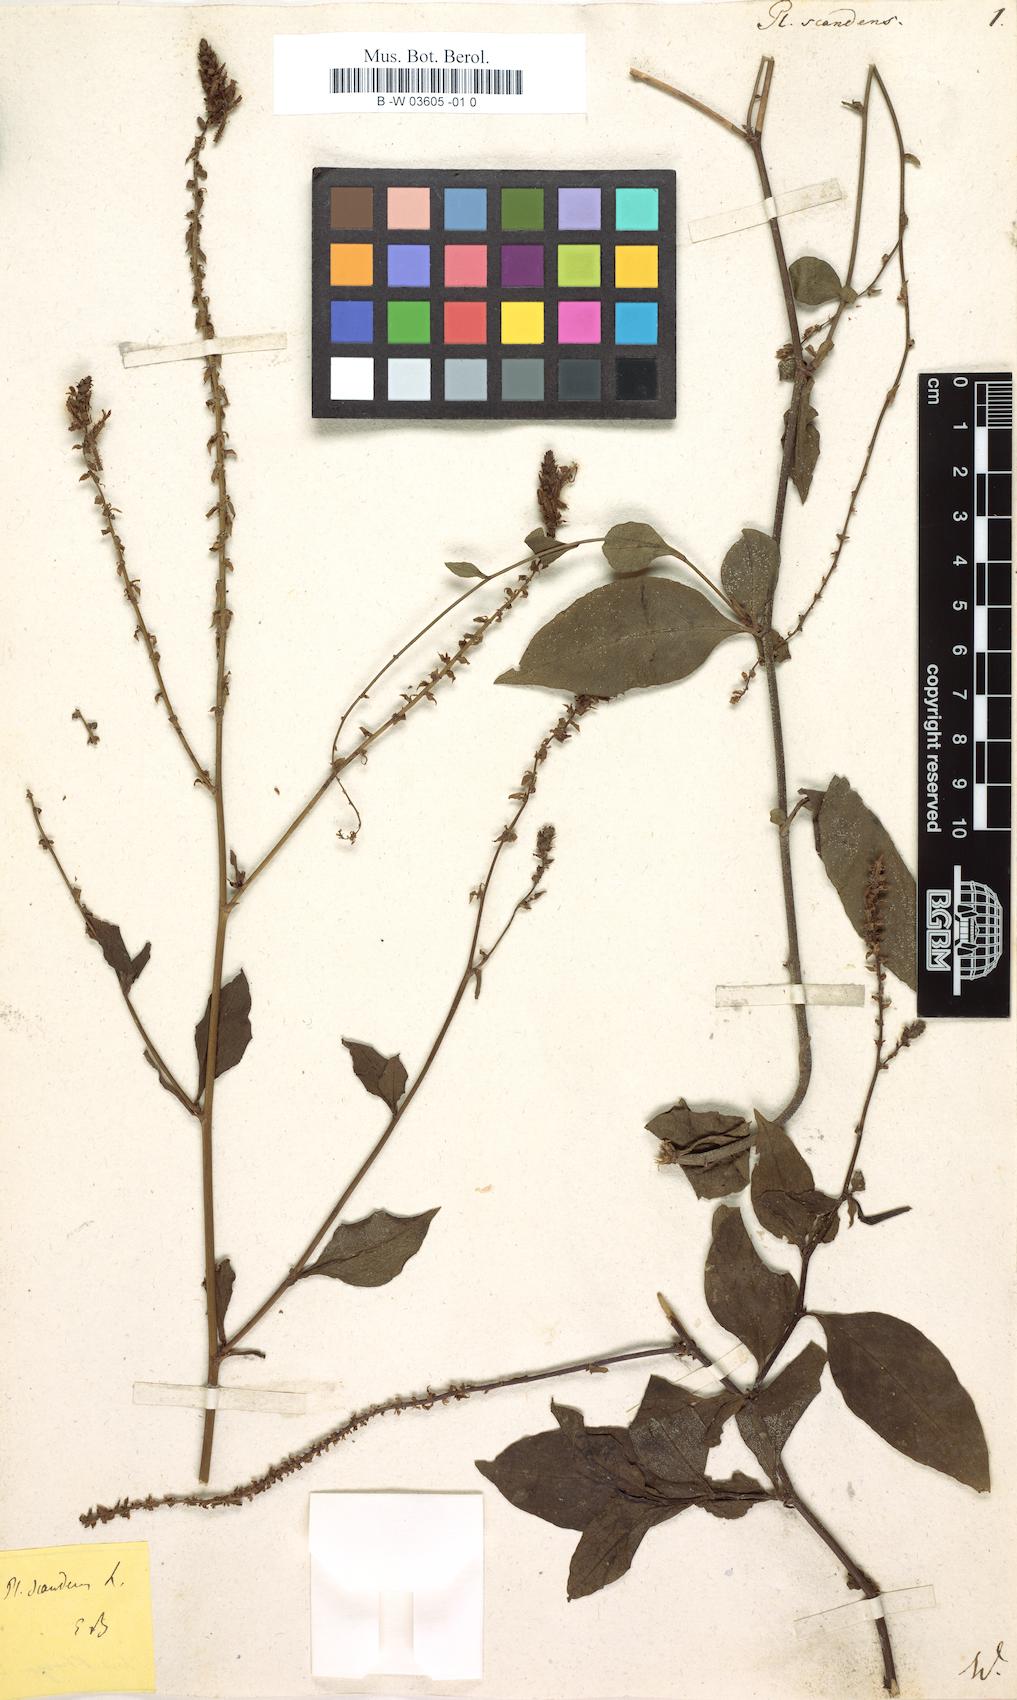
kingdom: Plantae
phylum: Tracheophyta
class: Magnoliopsida
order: Caryophyllales
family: Plumbaginaceae
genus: Plumbago
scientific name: Plumbago zeylanica
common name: Doctorbush
